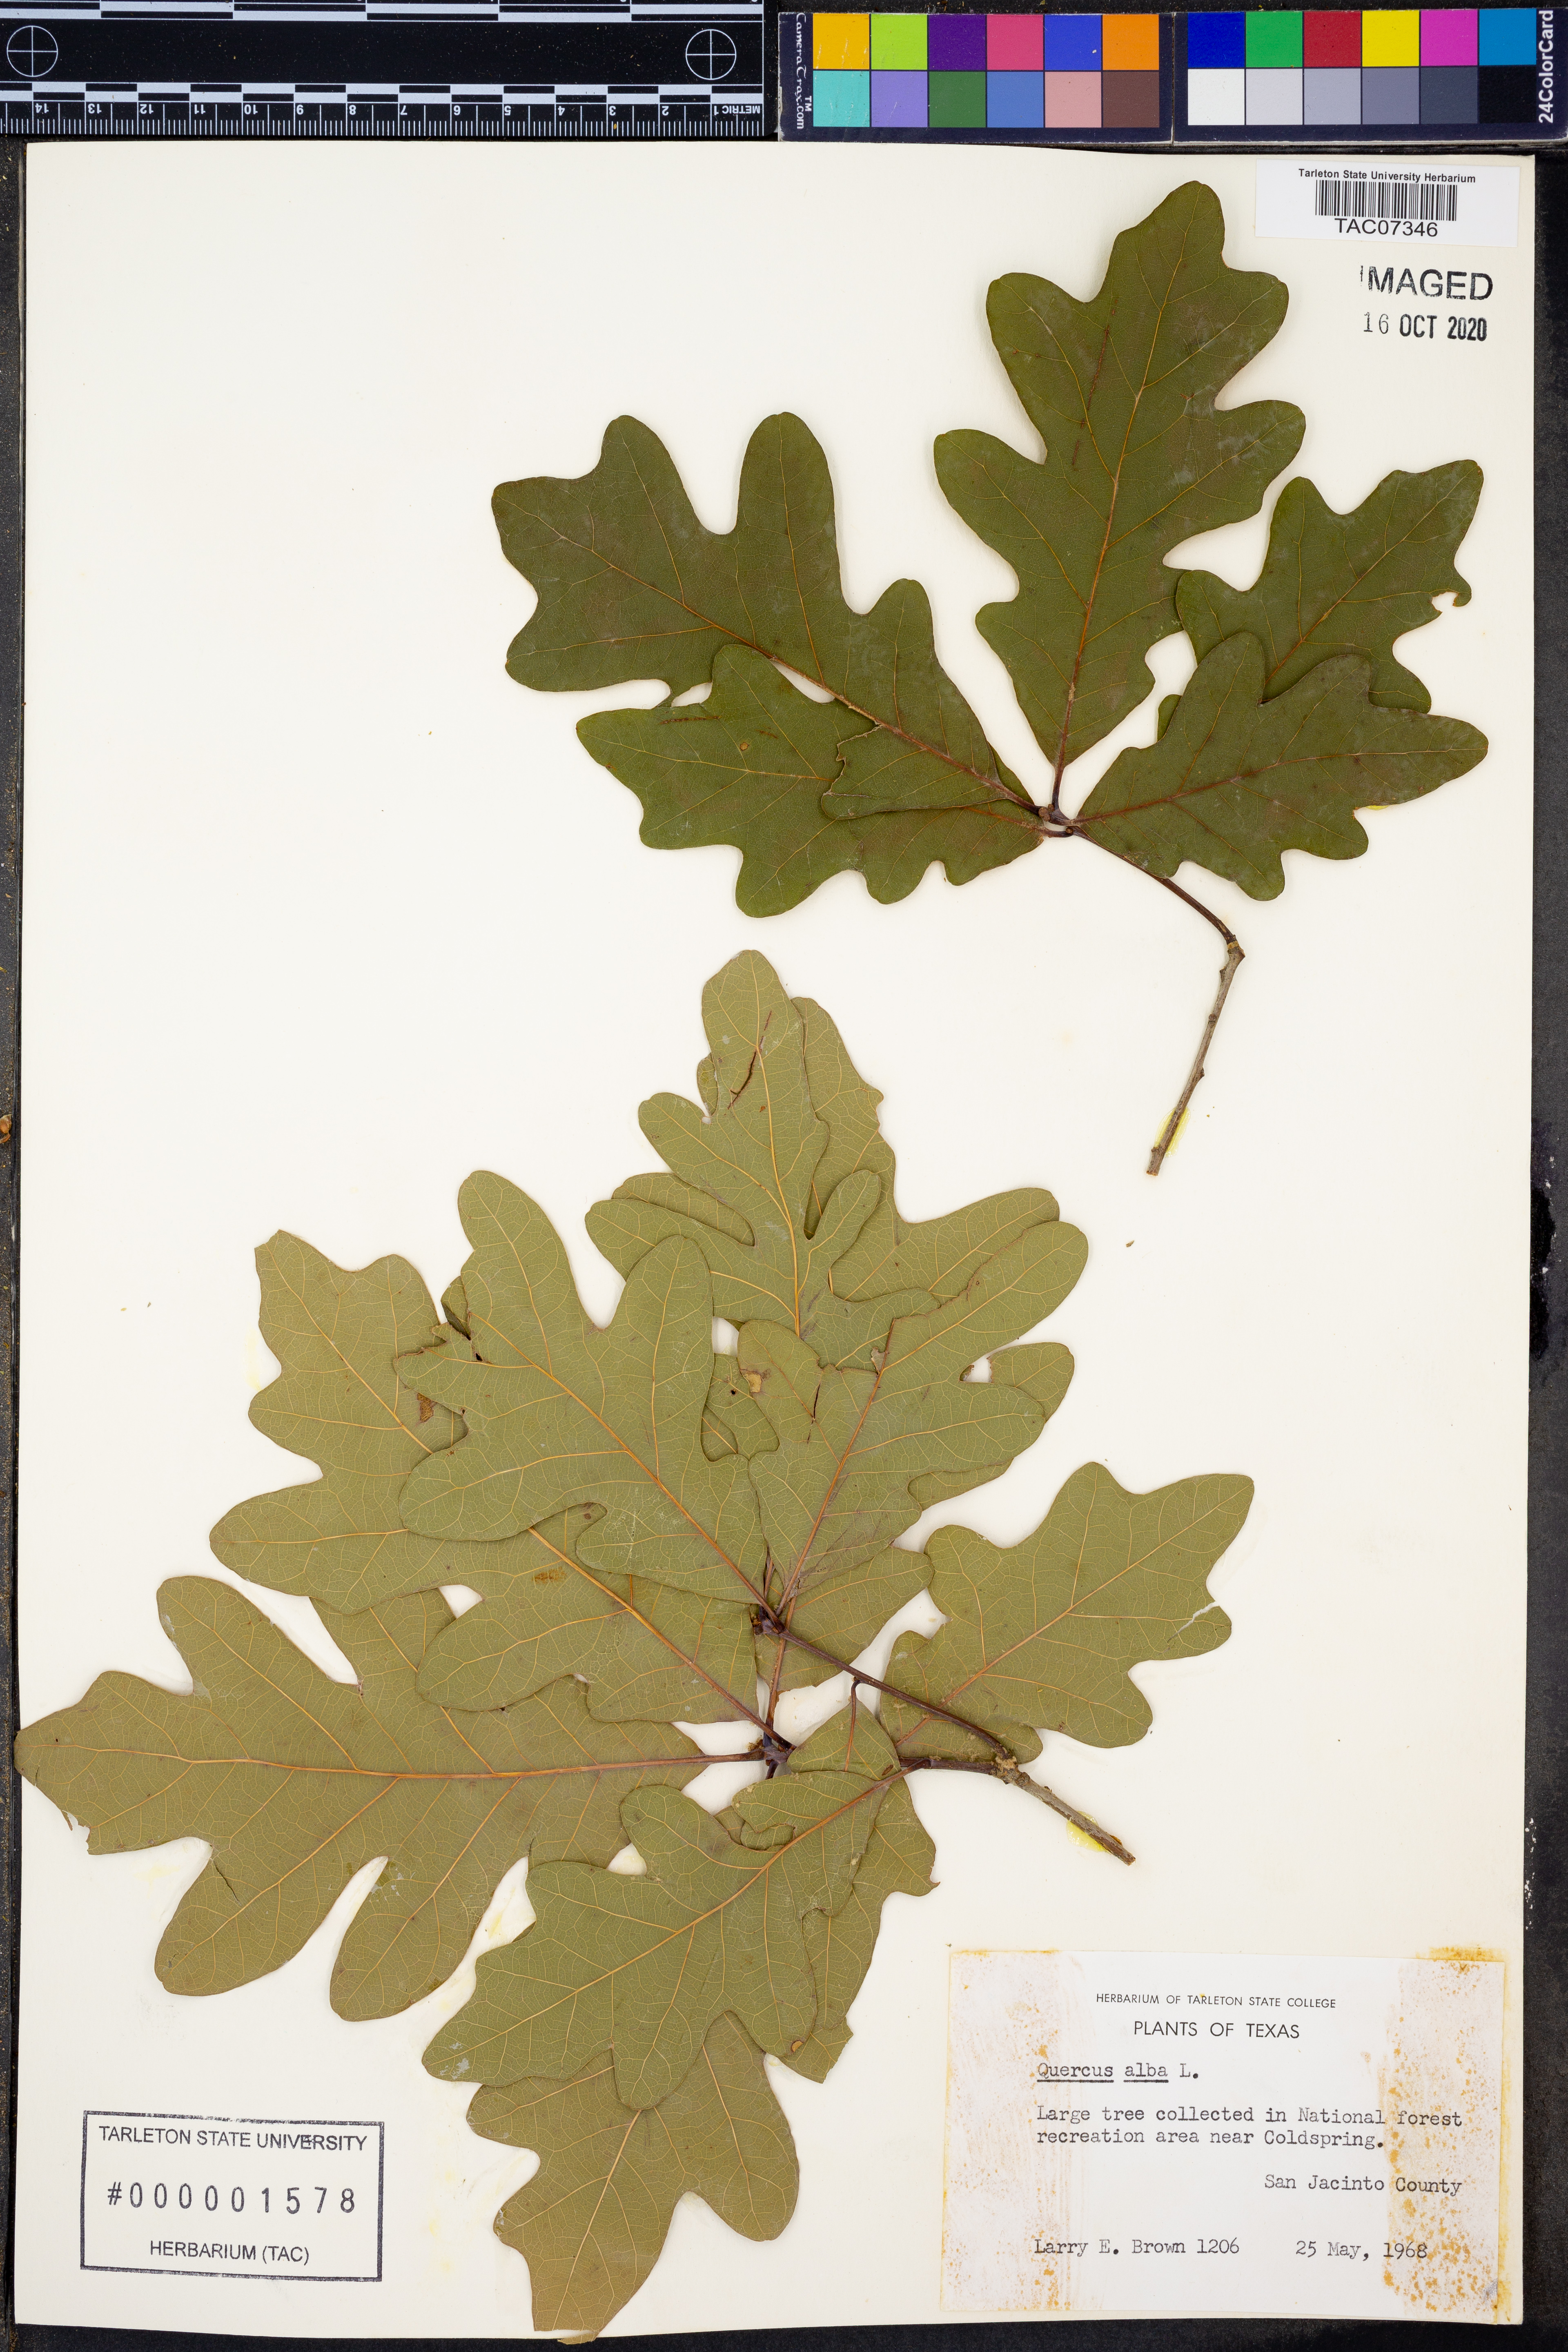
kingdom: Plantae
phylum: Tracheophyta
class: Magnoliopsida
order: Fagales
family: Fagaceae
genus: Quercus
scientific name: Quercus alba
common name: White oak
